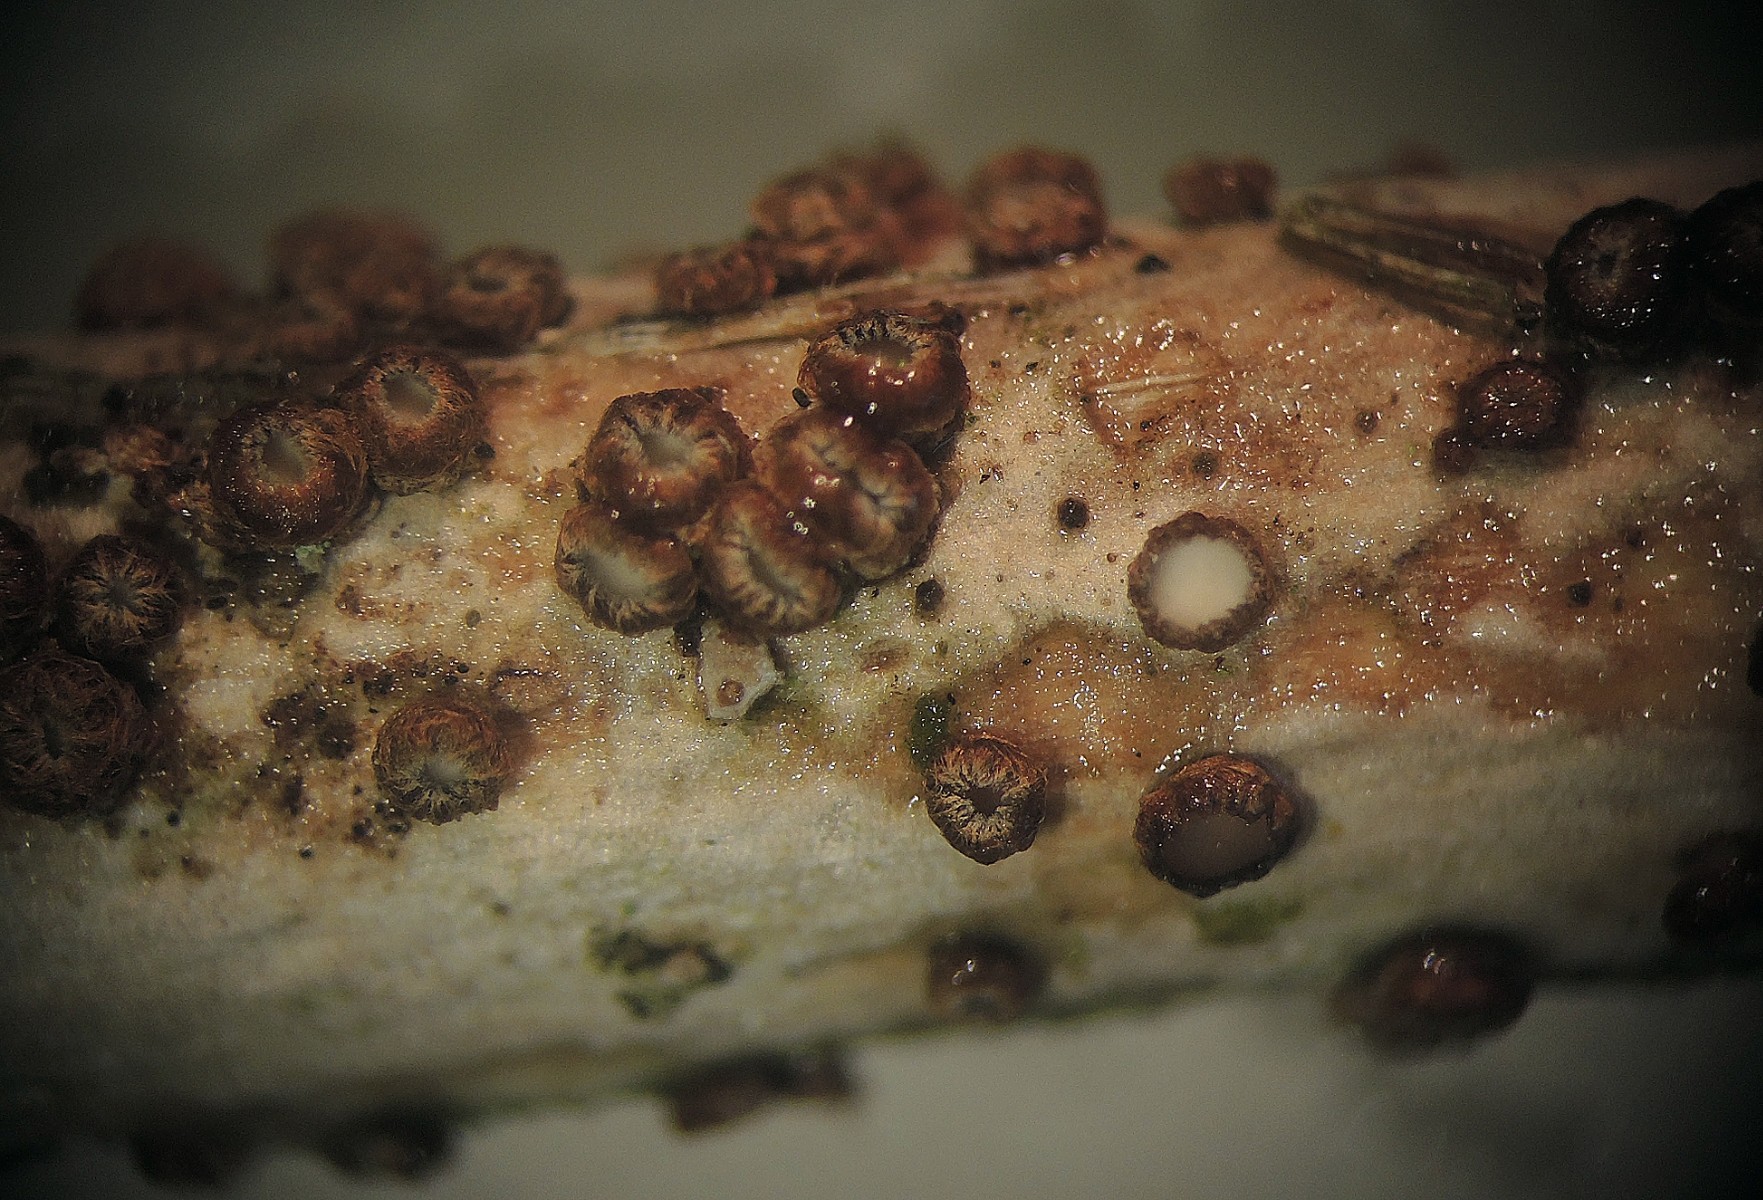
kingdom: Fungi
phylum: Ascomycota
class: Leotiomycetes
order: Helotiales
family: Solenopeziaceae
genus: Trichopezizella
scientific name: Trichopezizella barbata
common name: skægget frynseskive
